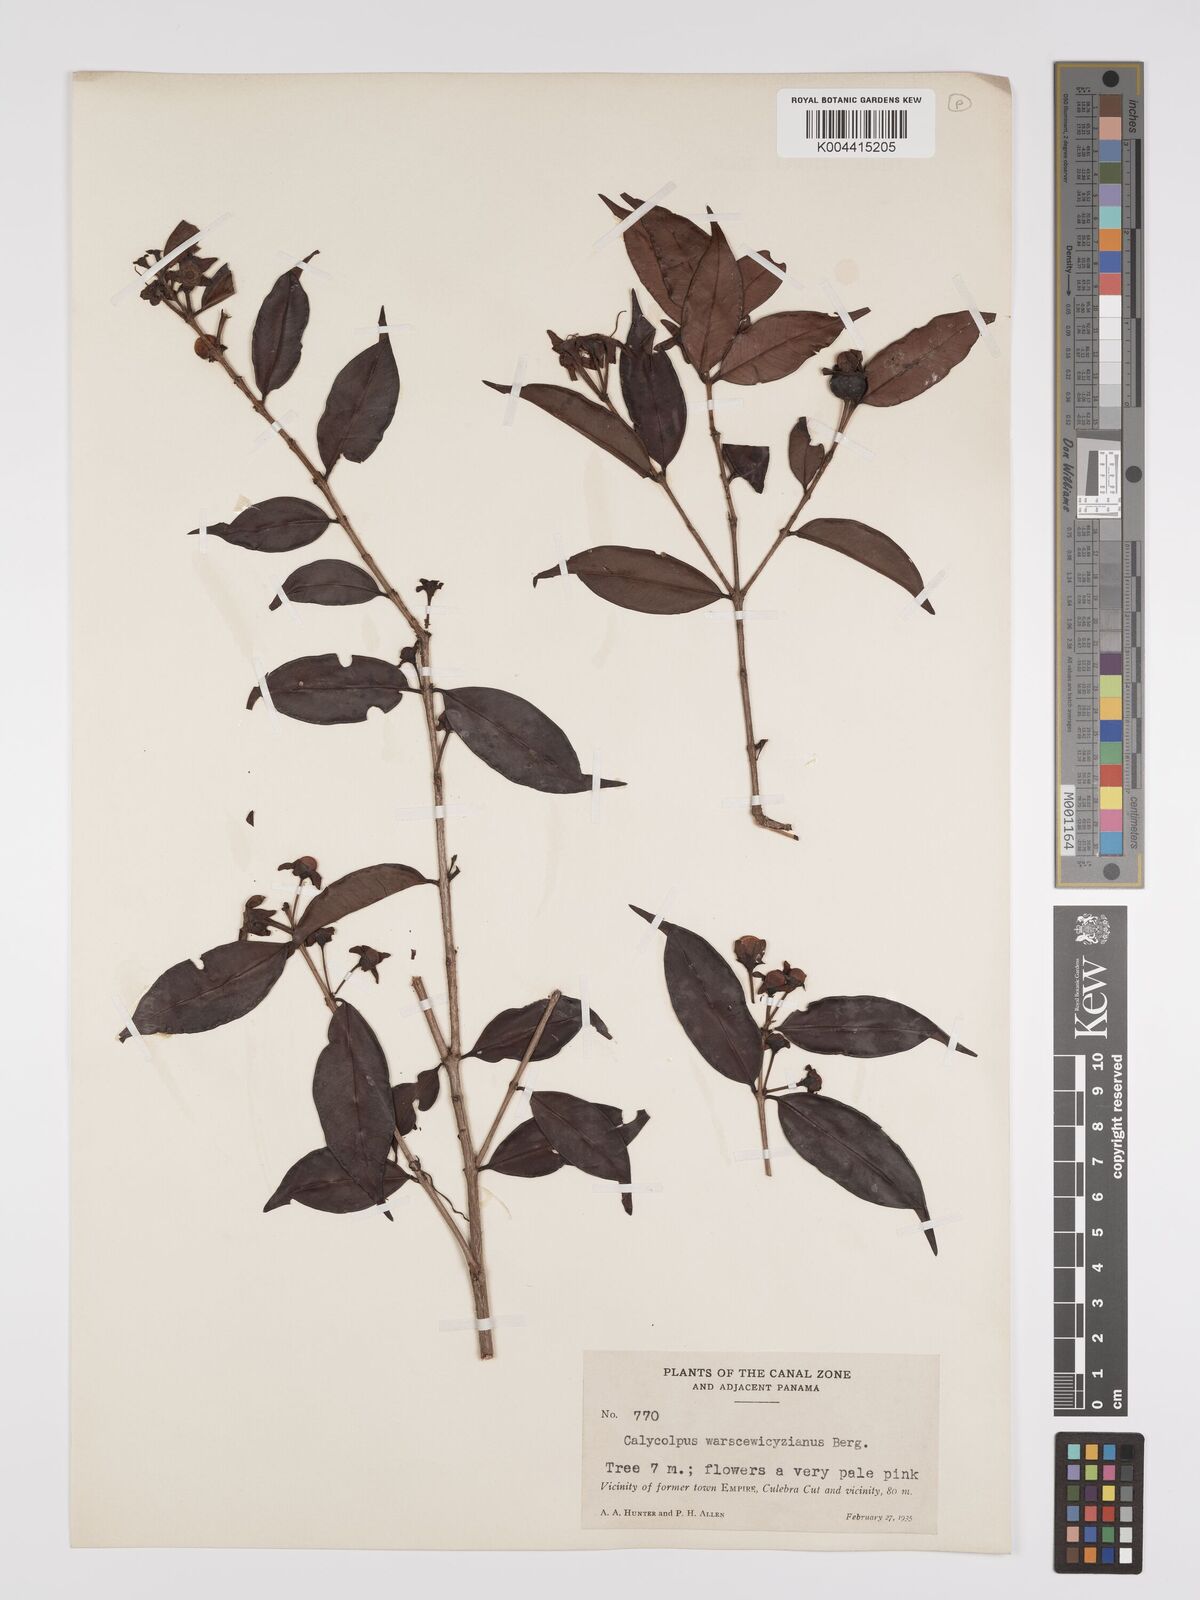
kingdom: Plantae
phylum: Tracheophyta
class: Magnoliopsida
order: Myrtales
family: Myrtaceae
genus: Calycolpus
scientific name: Calycolpus warszewiczianus
